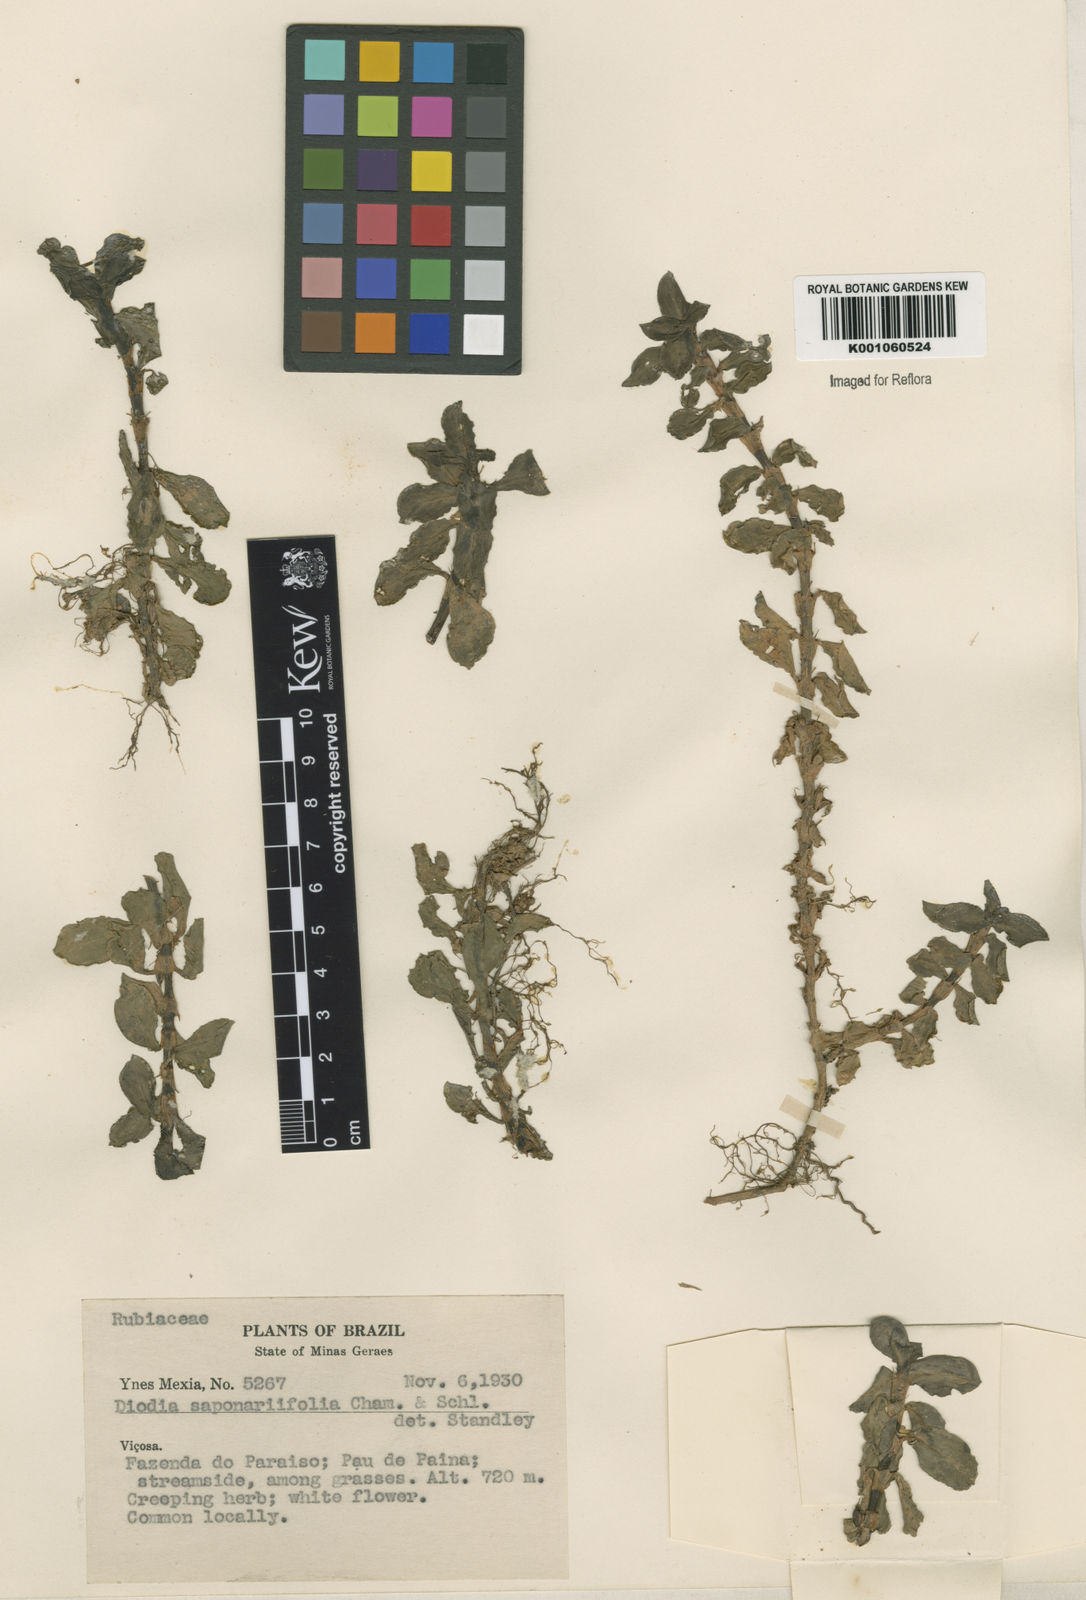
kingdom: Plantae
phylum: Tracheophyta
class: Magnoliopsida
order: Gentianales
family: Rubiaceae
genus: Diodia
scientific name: Diodia saponariifolia
